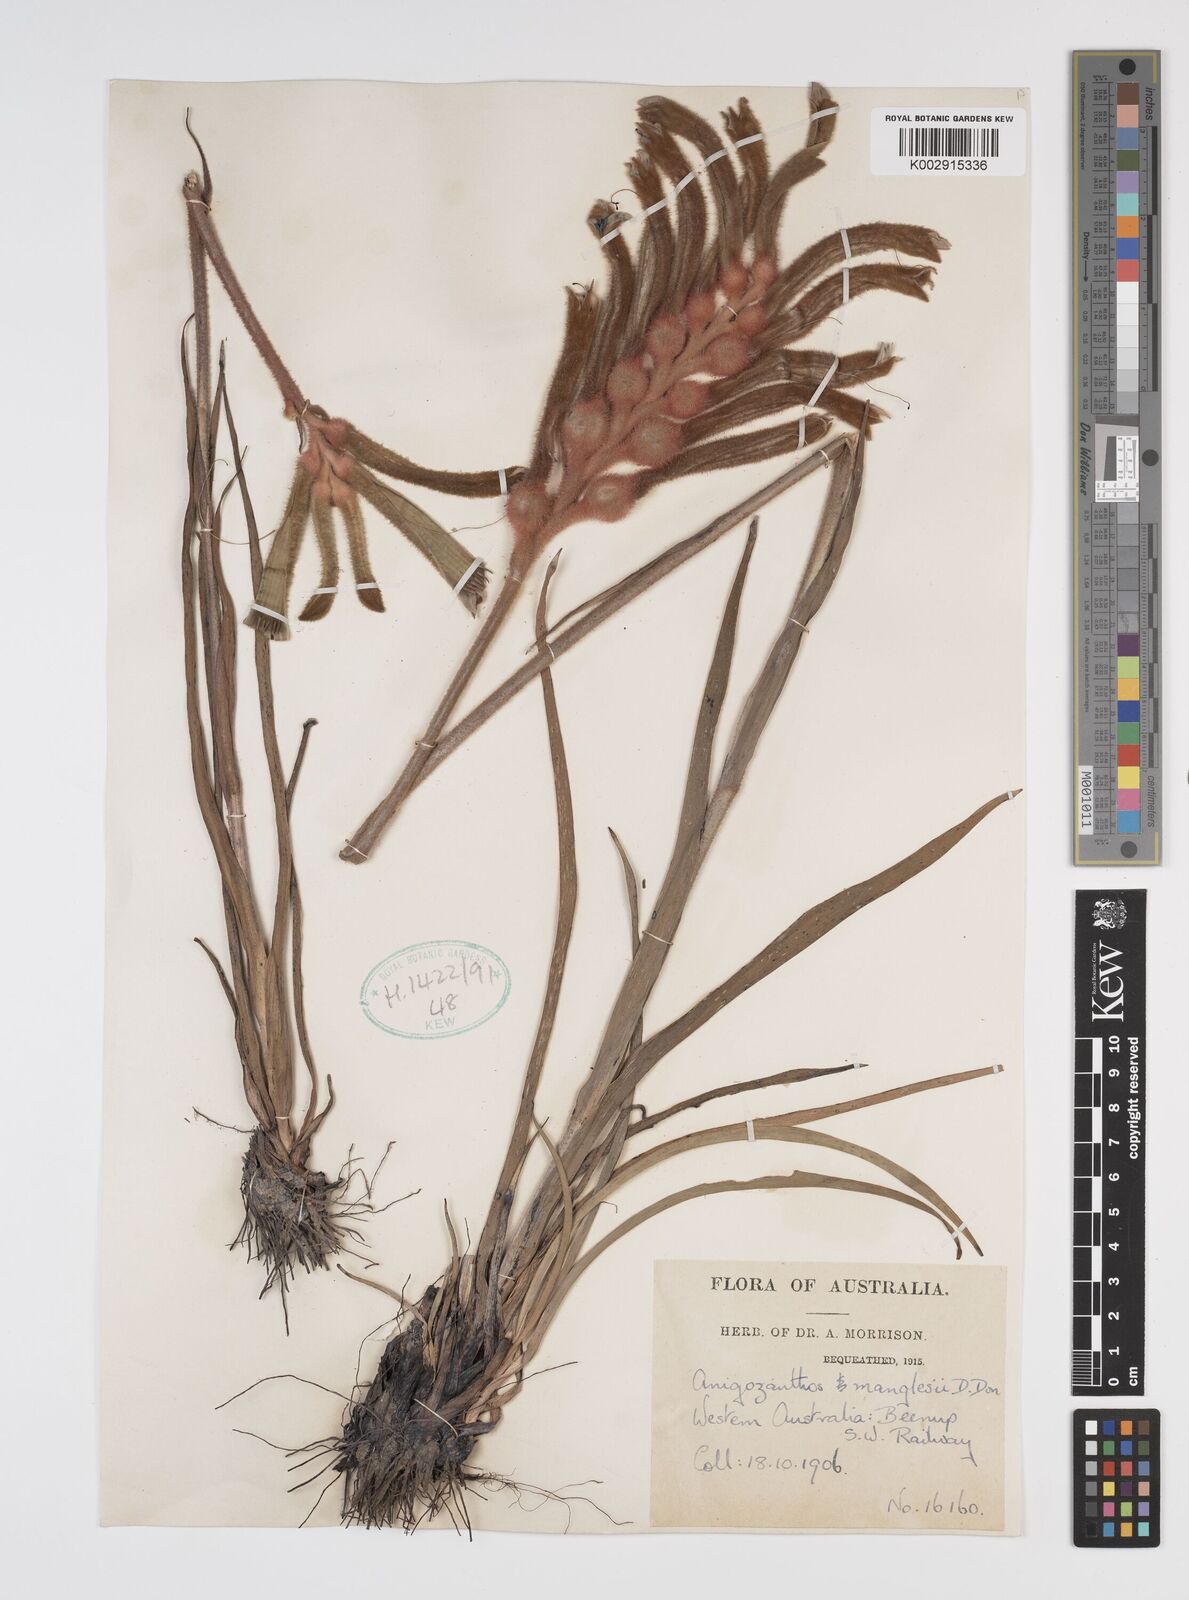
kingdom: Plantae
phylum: Tracheophyta
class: Liliopsida
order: Commelinales
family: Haemodoraceae
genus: Anigozanthos
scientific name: Anigozanthos manglesii
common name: Mangles's kangaroo-paw
